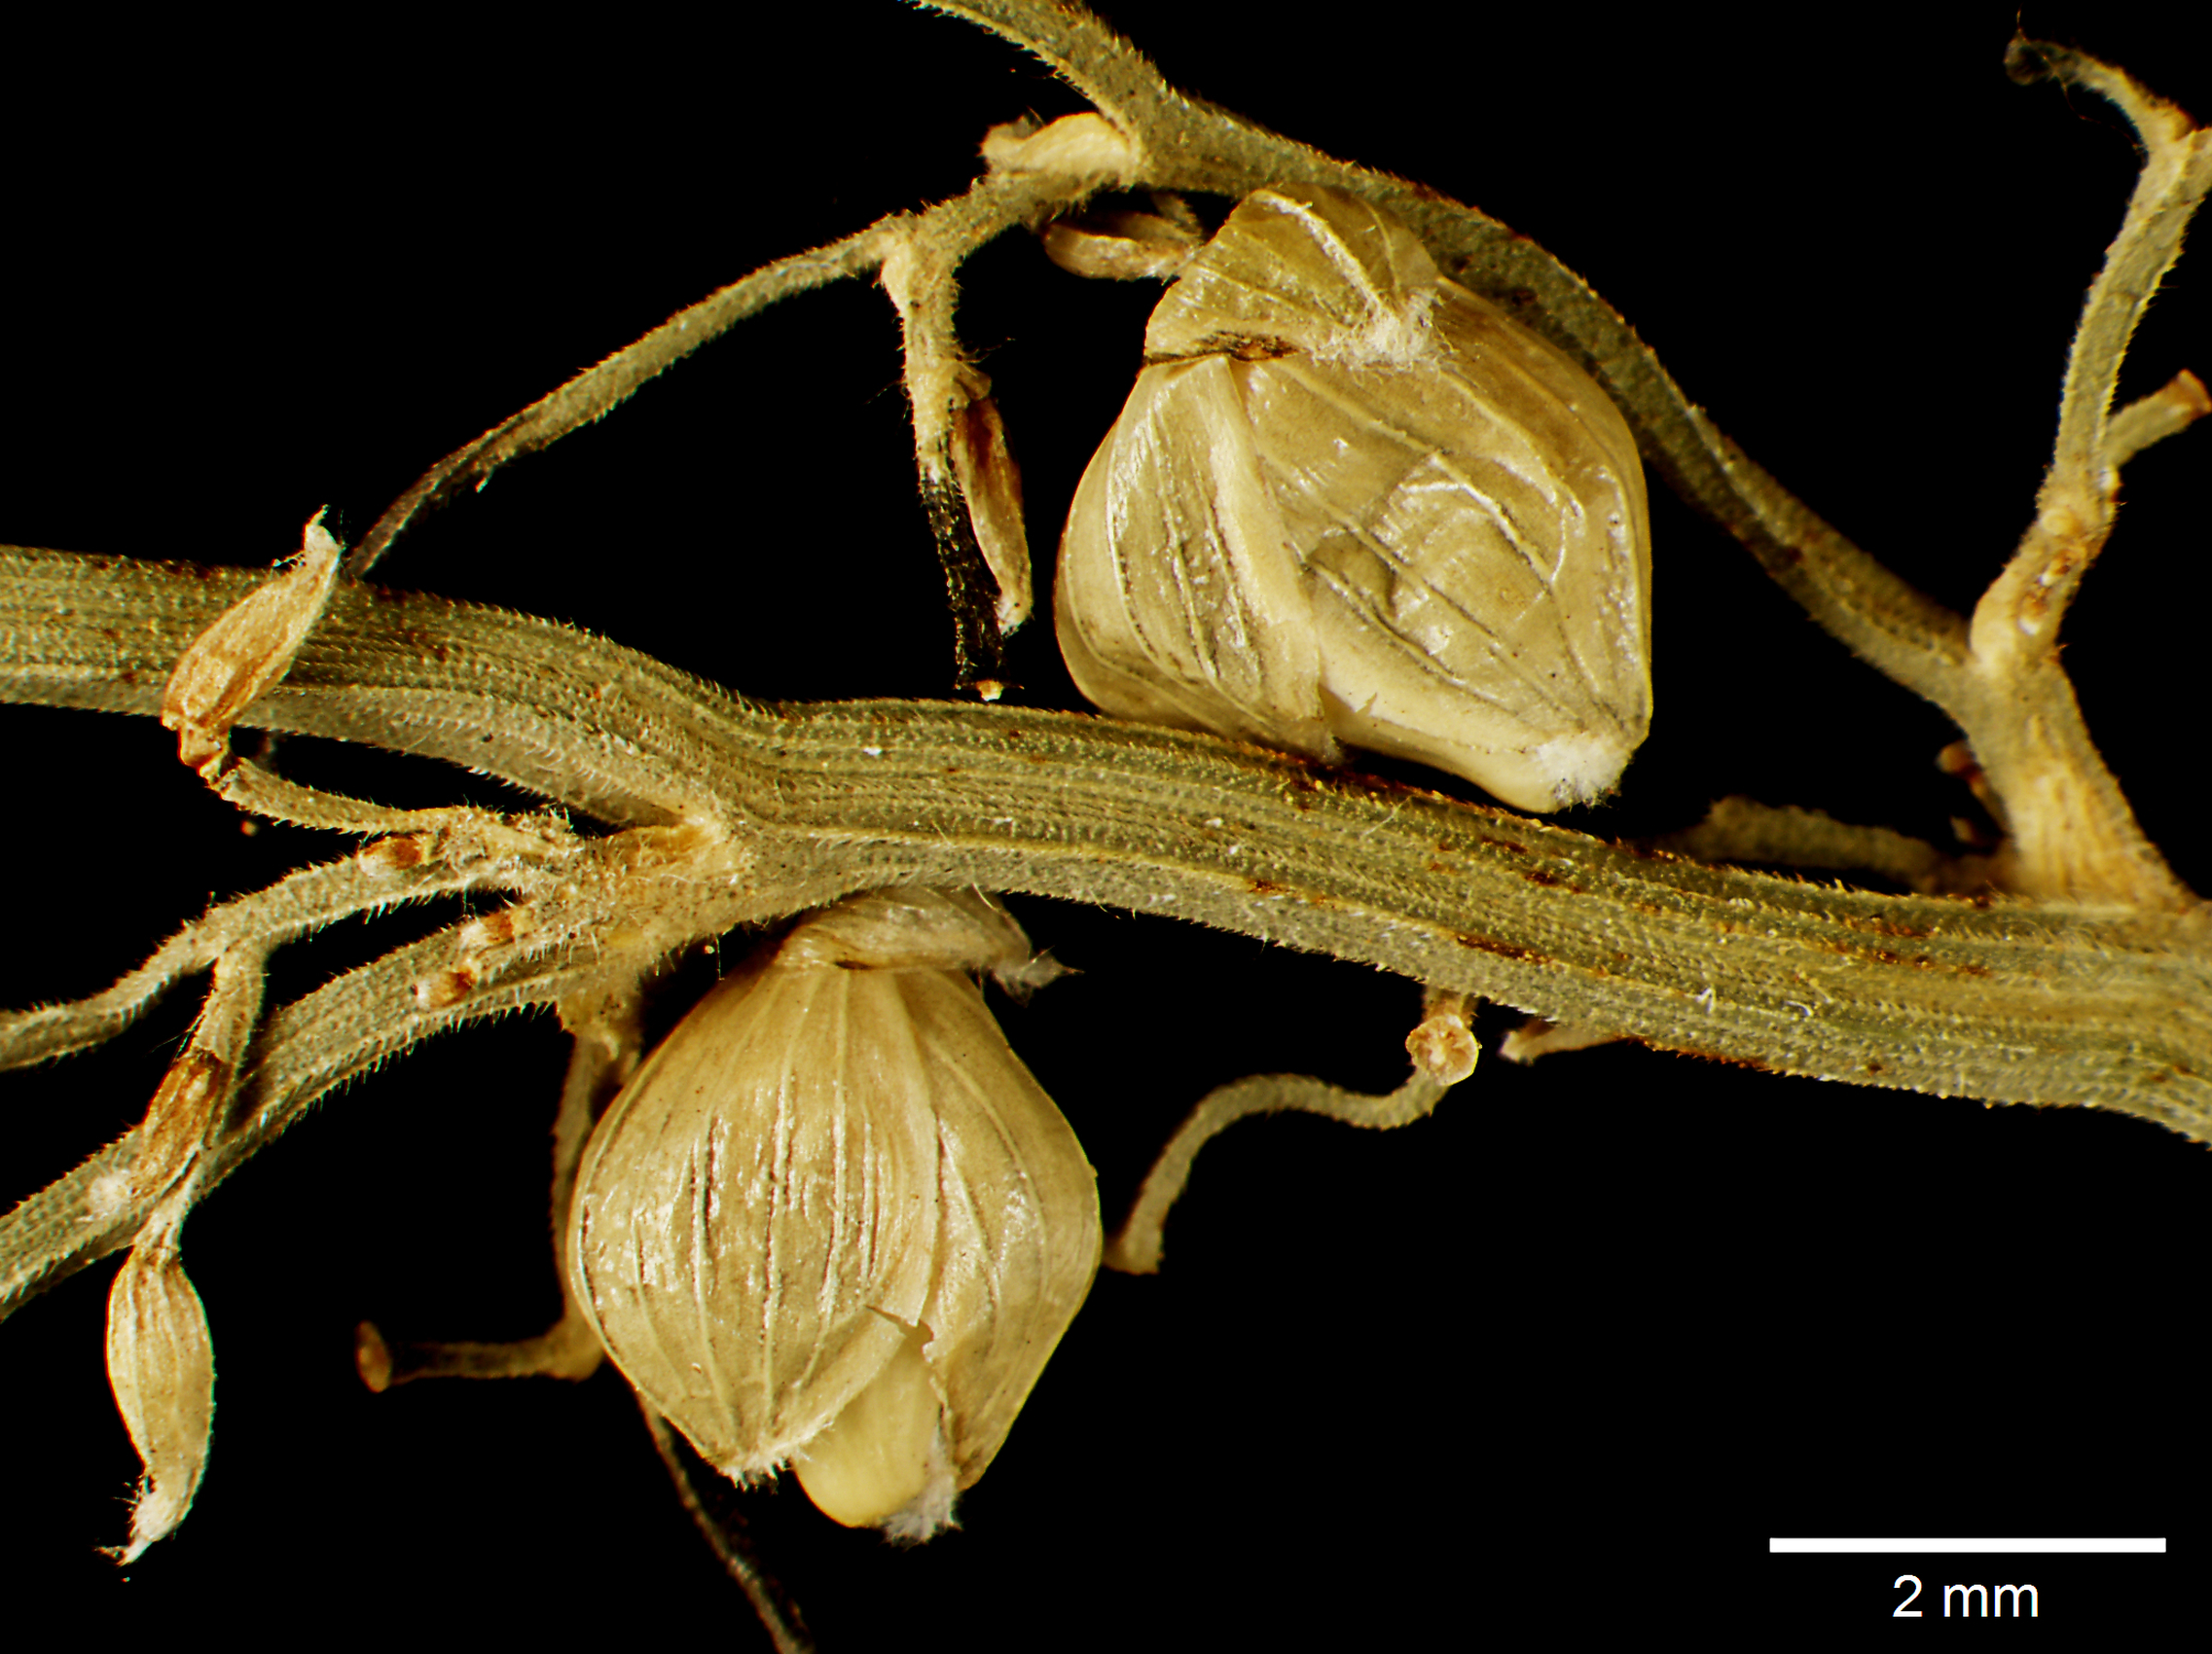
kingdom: Plantae
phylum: Tracheophyta
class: Liliopsida
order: Poales
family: Poaceae
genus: Lasiacis
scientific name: Lasiacis ruscifolia
